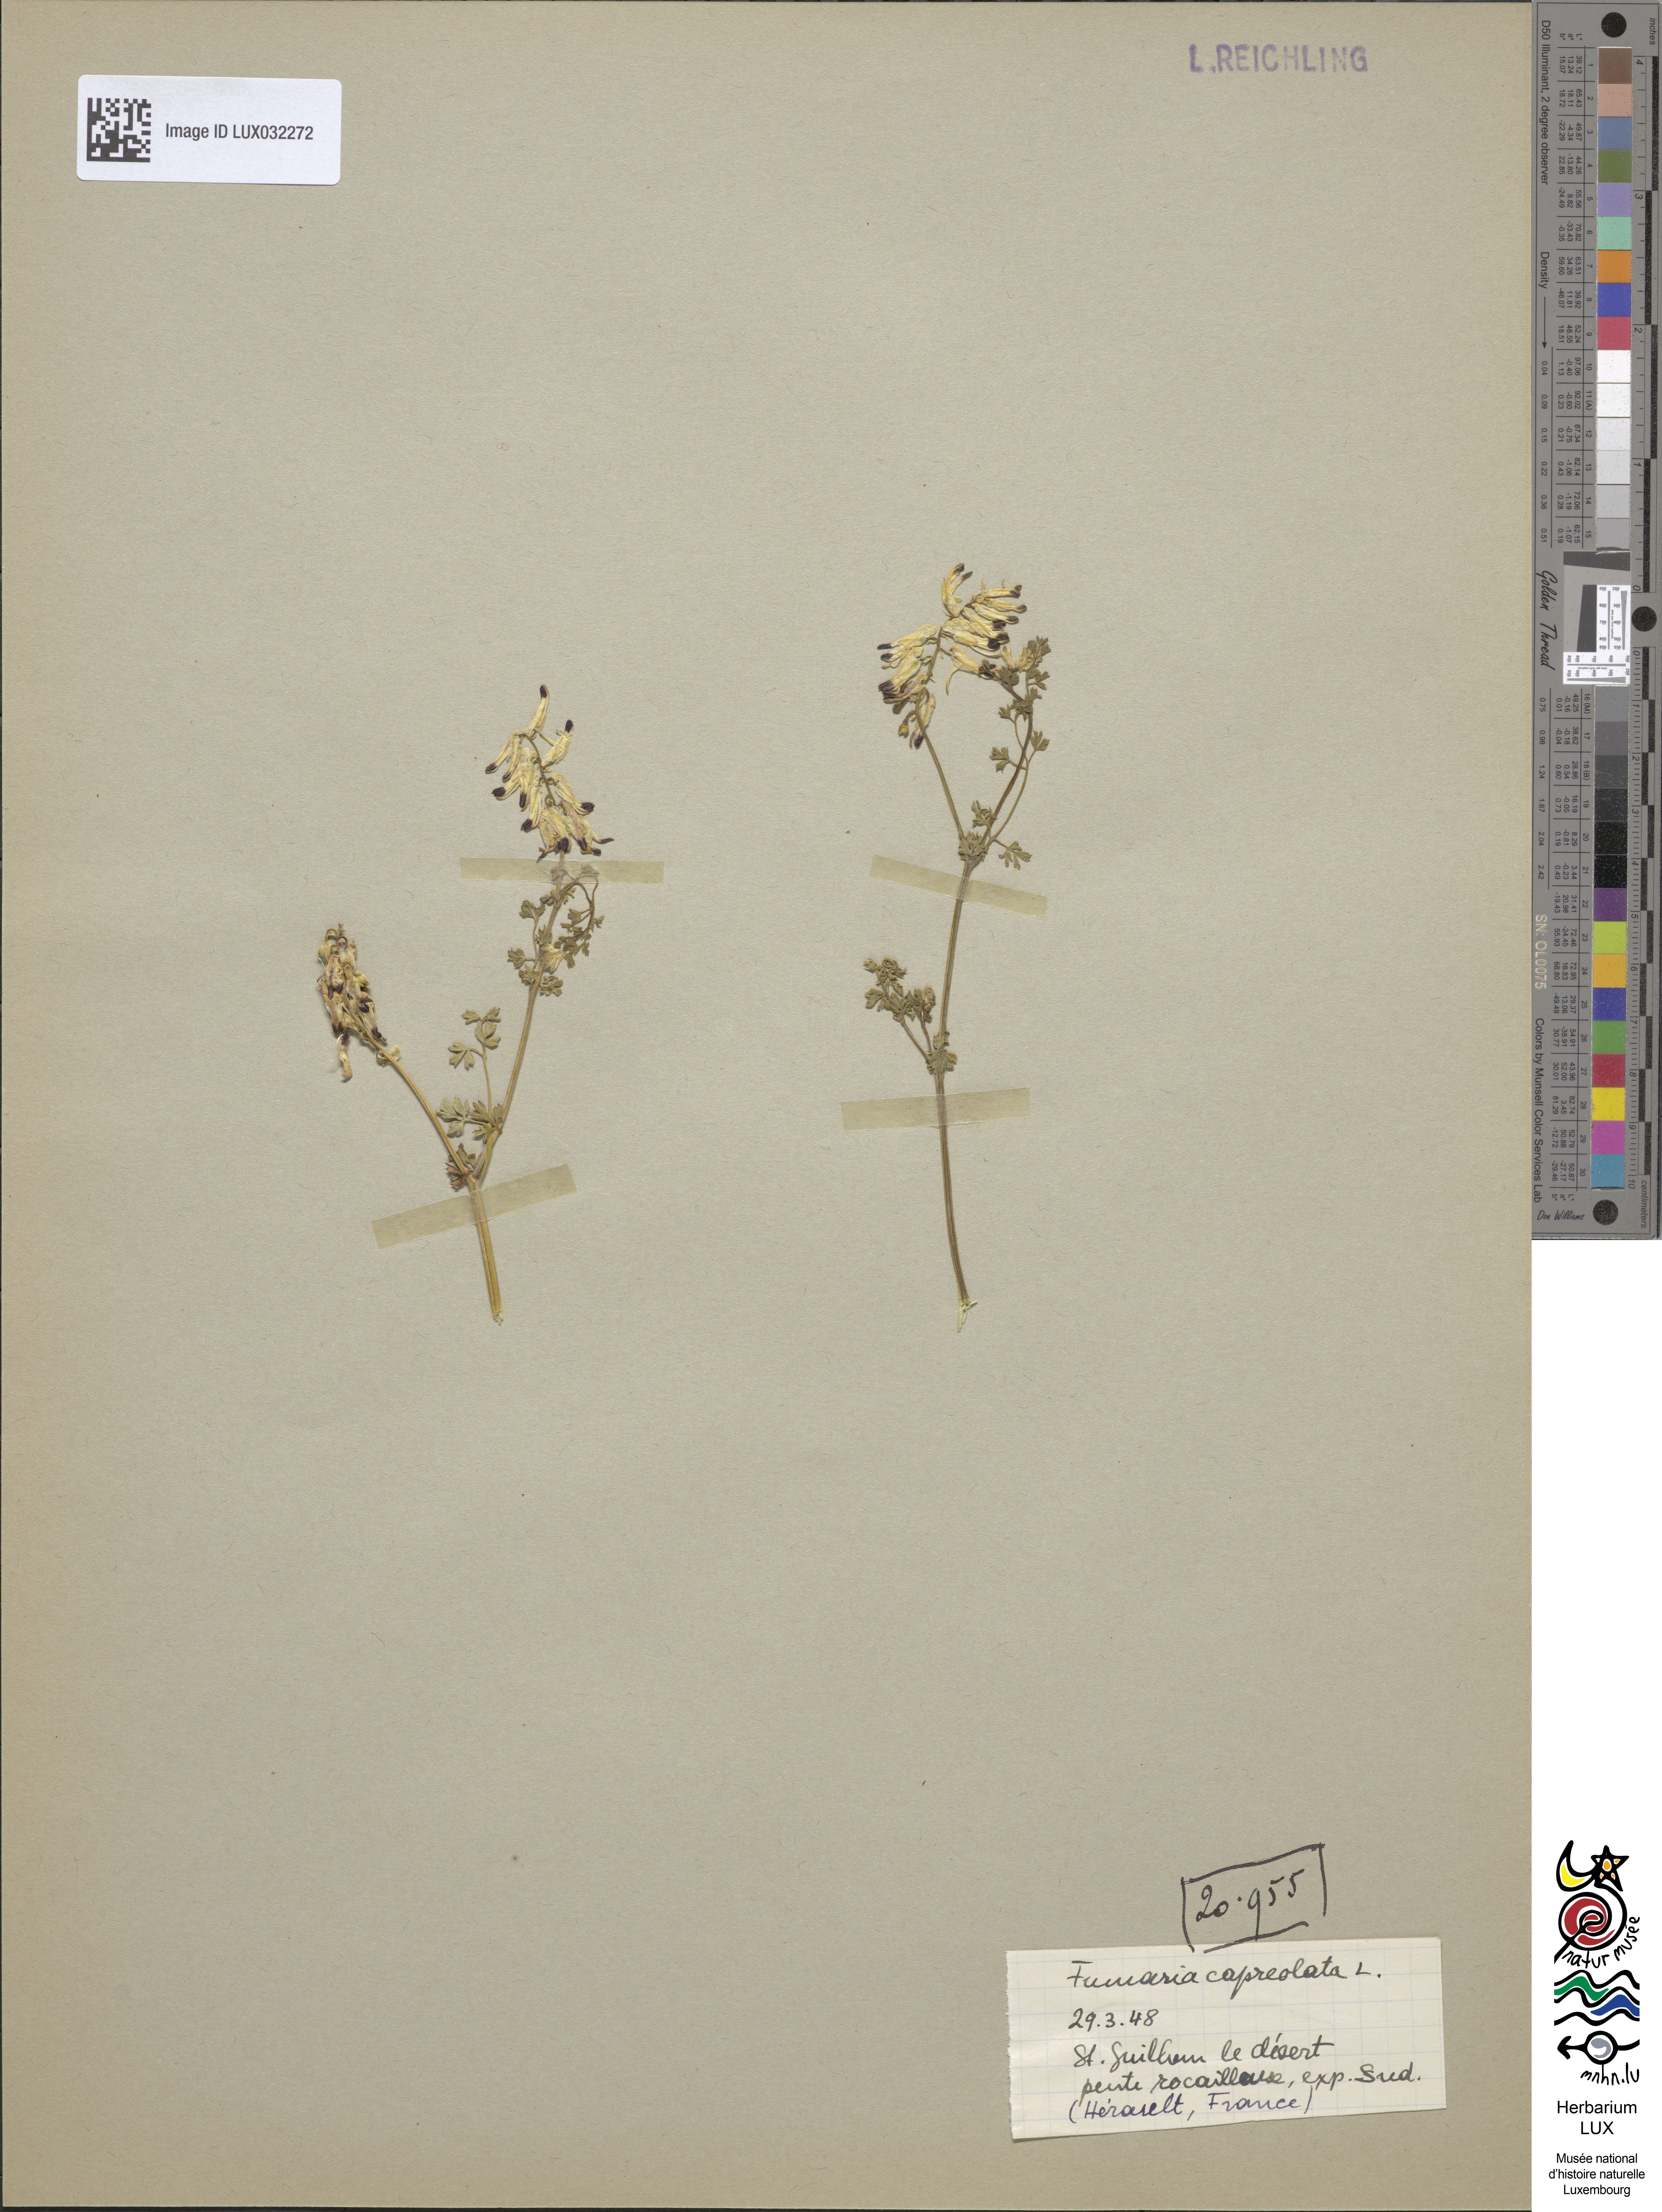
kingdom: Plantae
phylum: Tracheophyta
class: Magnoliopsida
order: Ranunculales
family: Papaveraceae
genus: Fumaria
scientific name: Fumaria capreolata
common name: White ramping-fumitory
